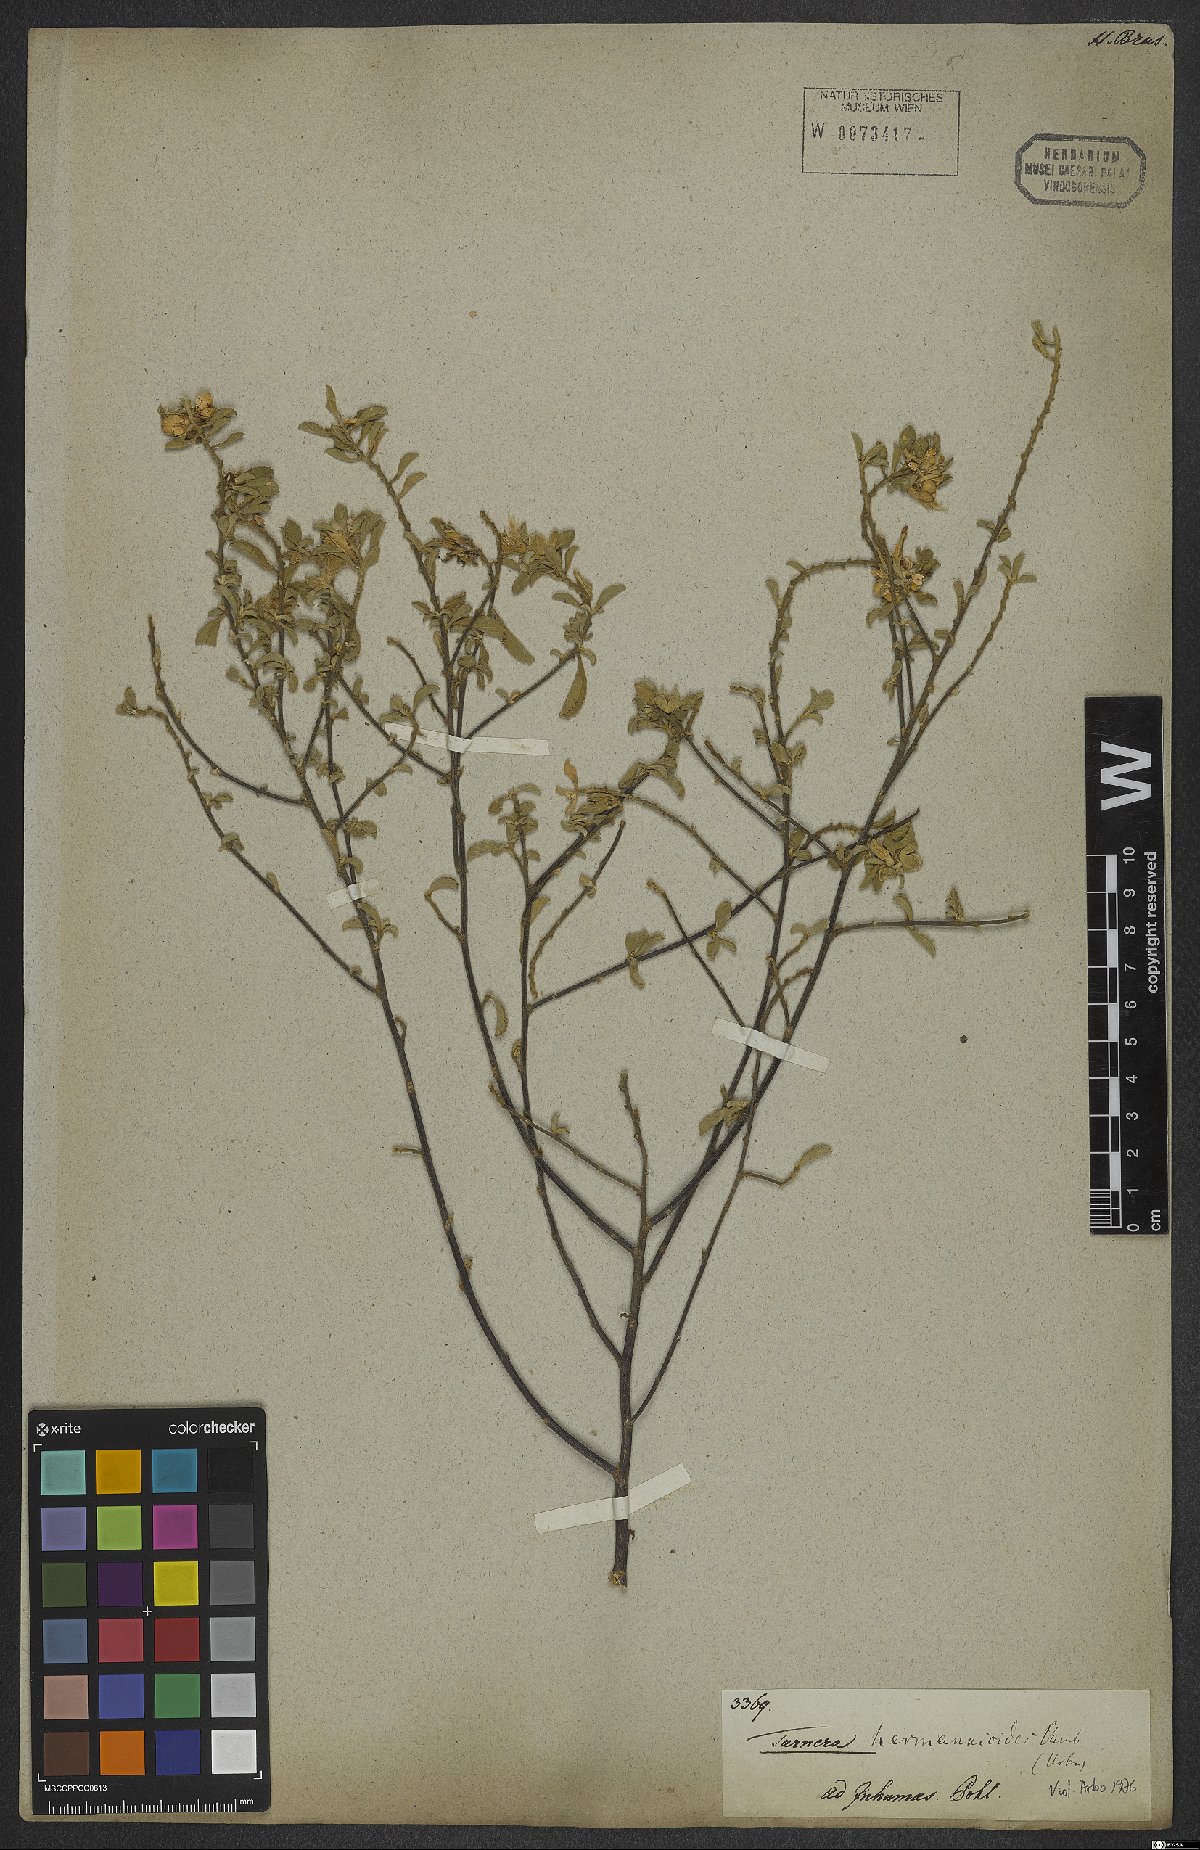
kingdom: Plantae
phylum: Tracheophyta
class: Magnoliopsida
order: Malpighiales
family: Turneraceae
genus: Turnera
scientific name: Turnera hermannioides
